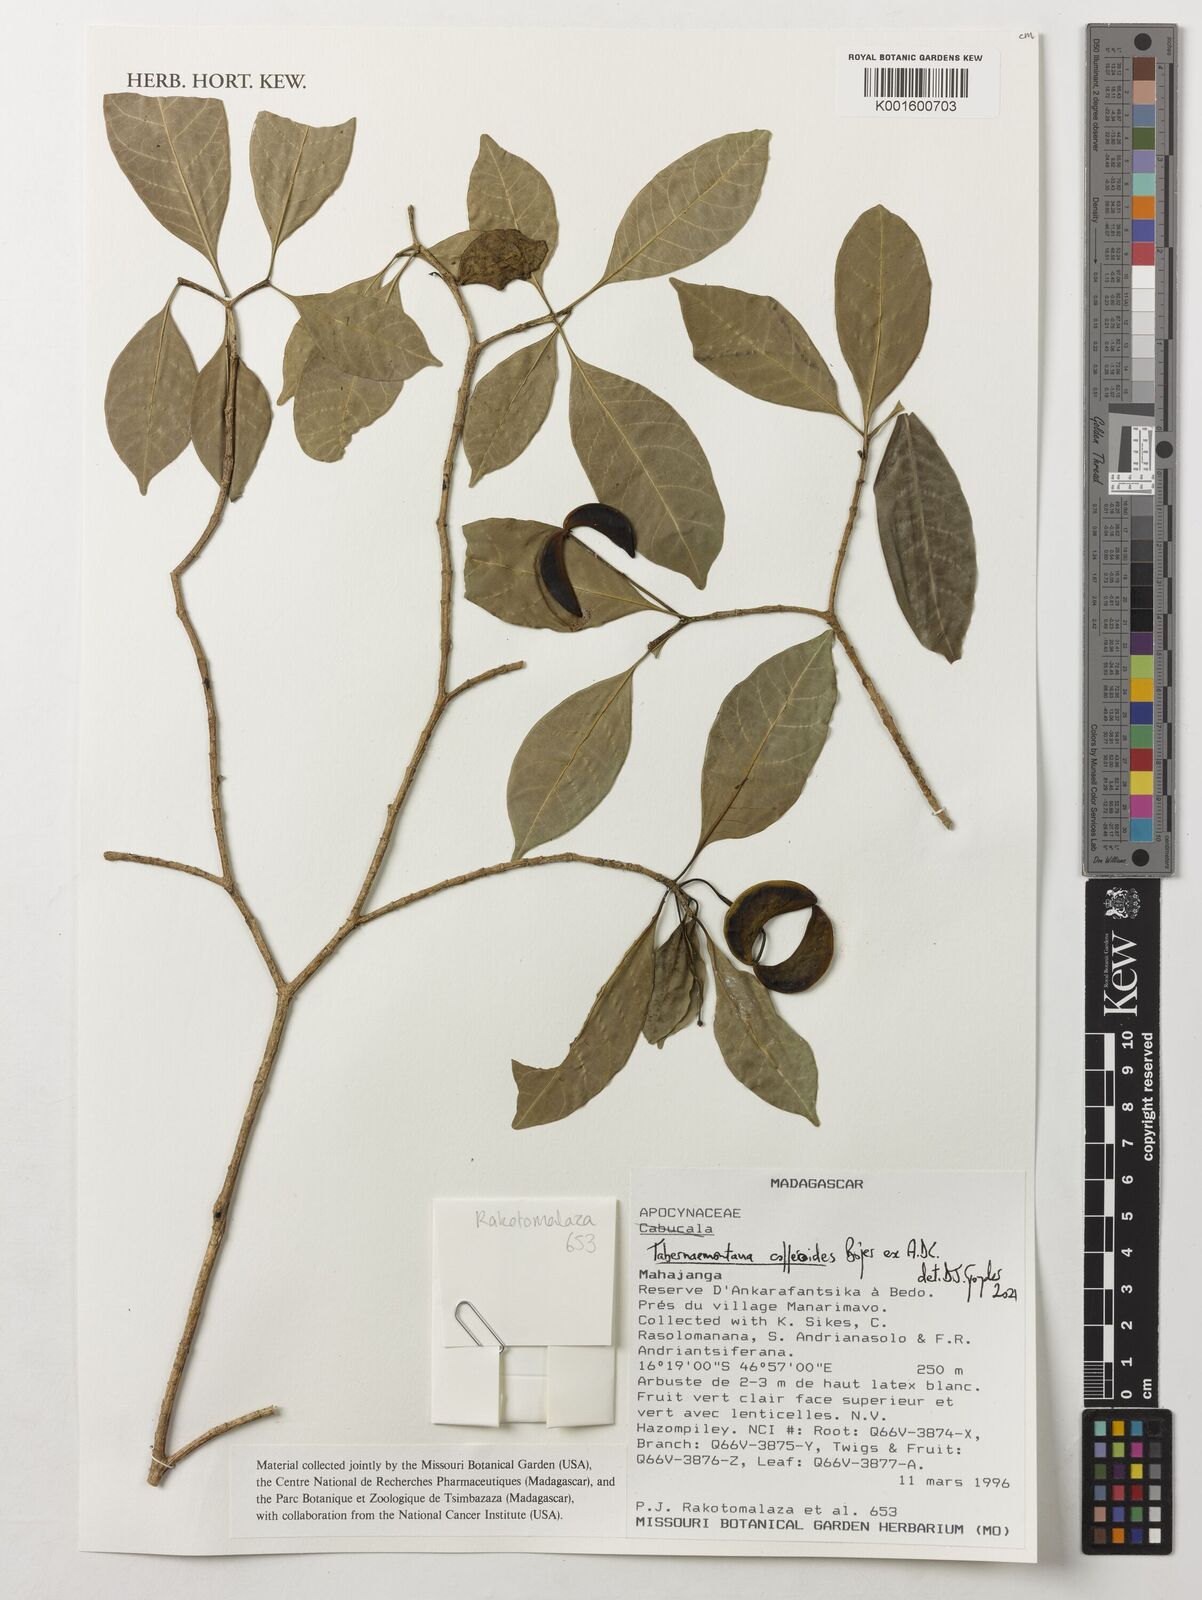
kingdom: Plantae
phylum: Tracheophyta
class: Magnoliopsida
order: Gentianales
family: Apocynaceae
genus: Tabernaemontana
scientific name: Tabernaemontana coffeoides
